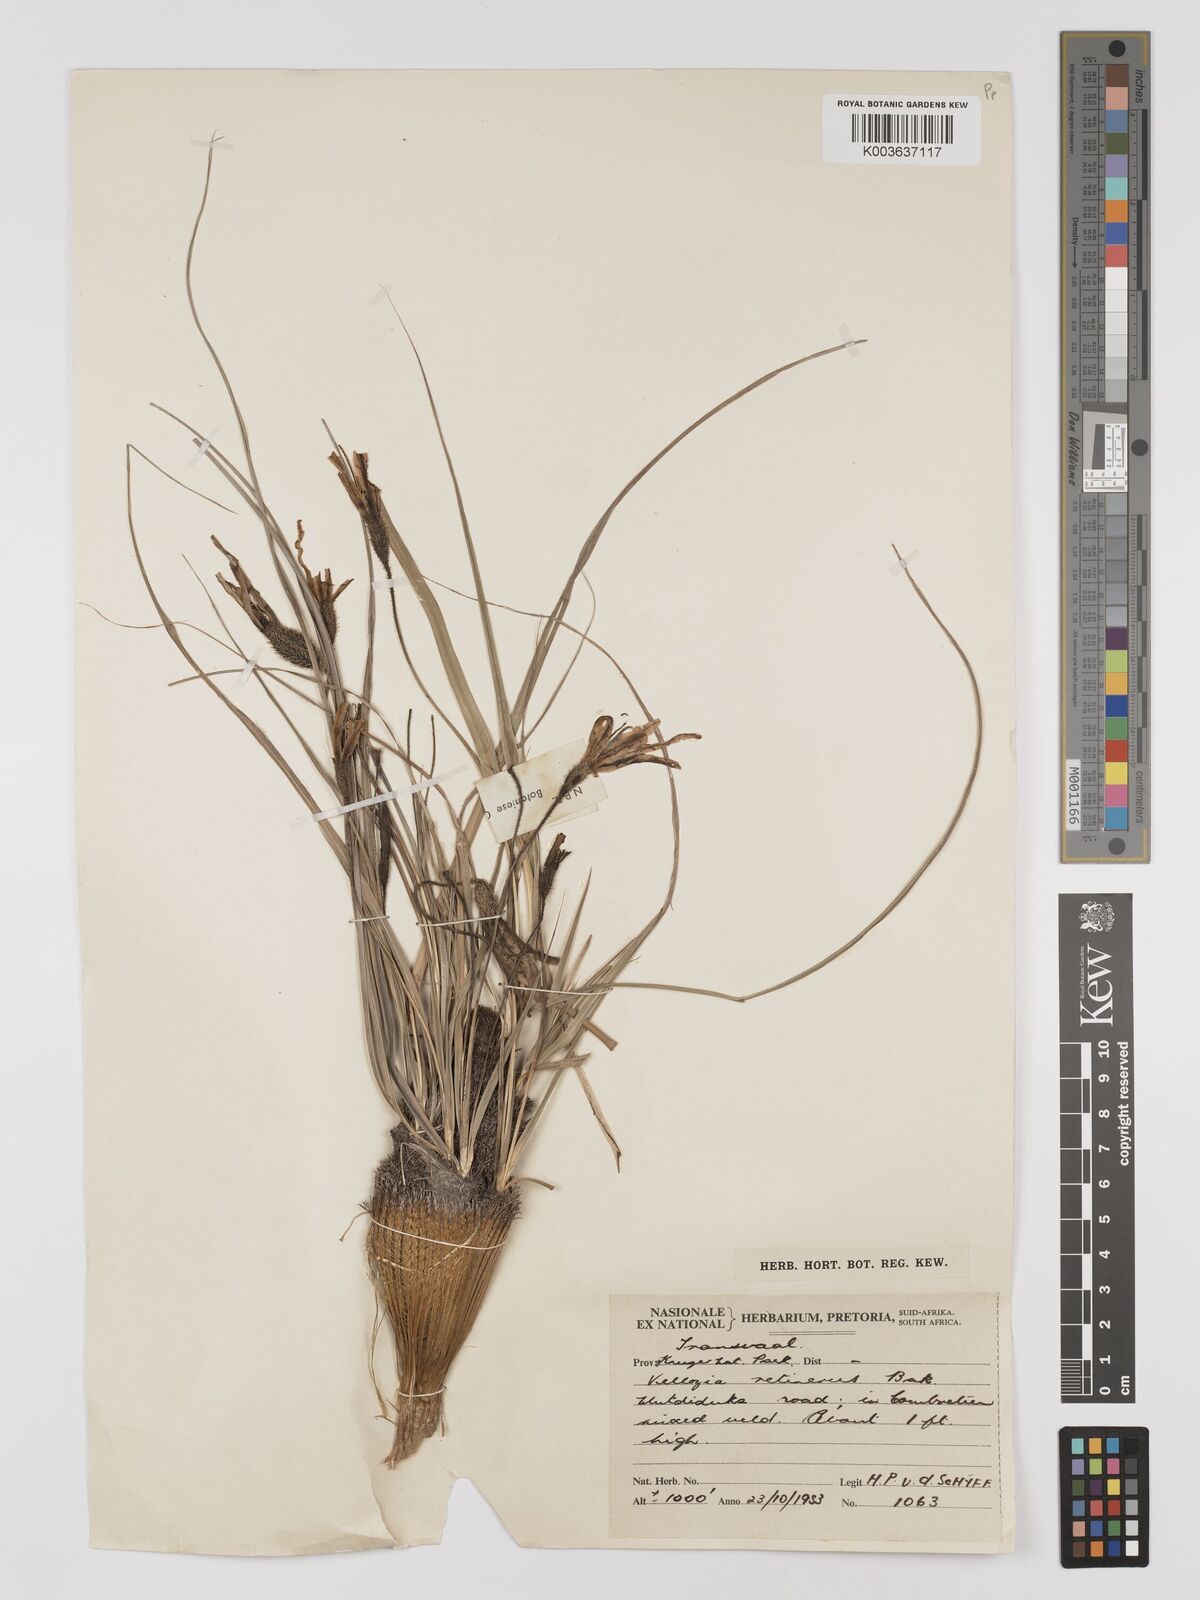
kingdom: Plantae
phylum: Tracheophyta
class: Liliopsida
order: Pandanales
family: Velloziaceae
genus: Xerophyta
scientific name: Xerophyta retinervis
